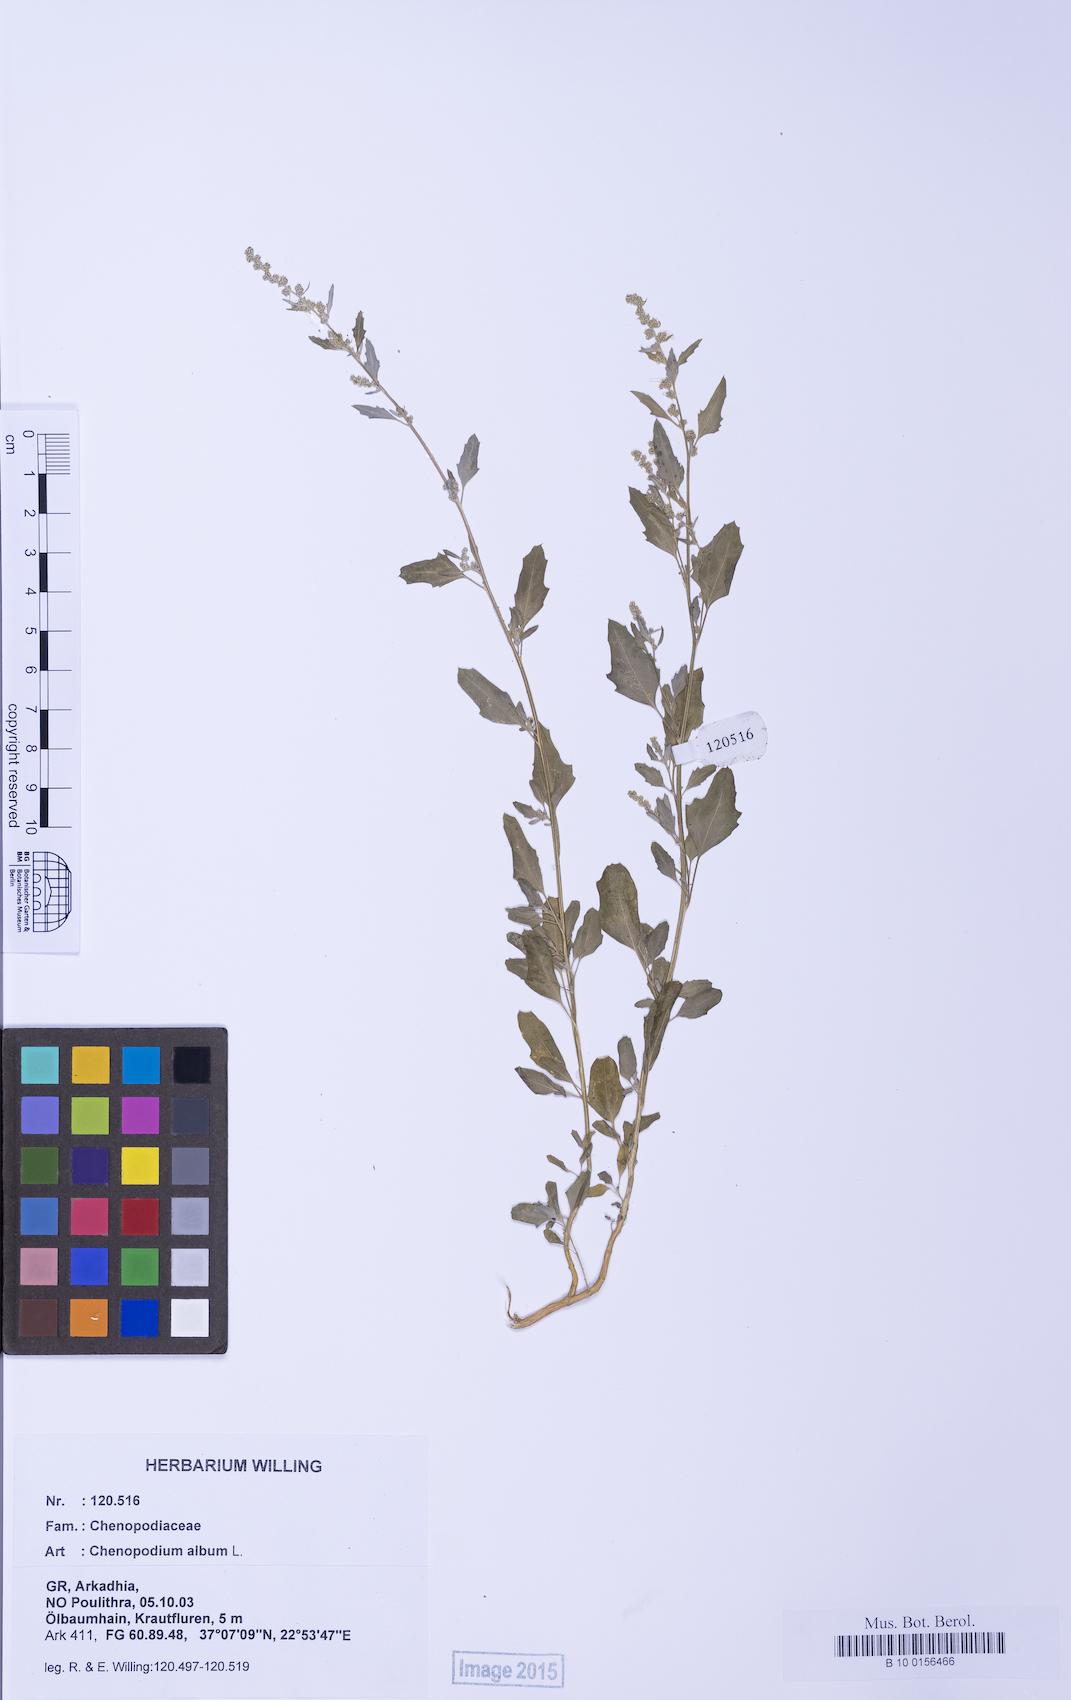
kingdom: Plantae
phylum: Tracheophyta
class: Magnoliopsida
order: Caryophyllales
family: Amaranthaceae
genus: Chenopodium
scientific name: Chenopodium album
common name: Fat-hen
